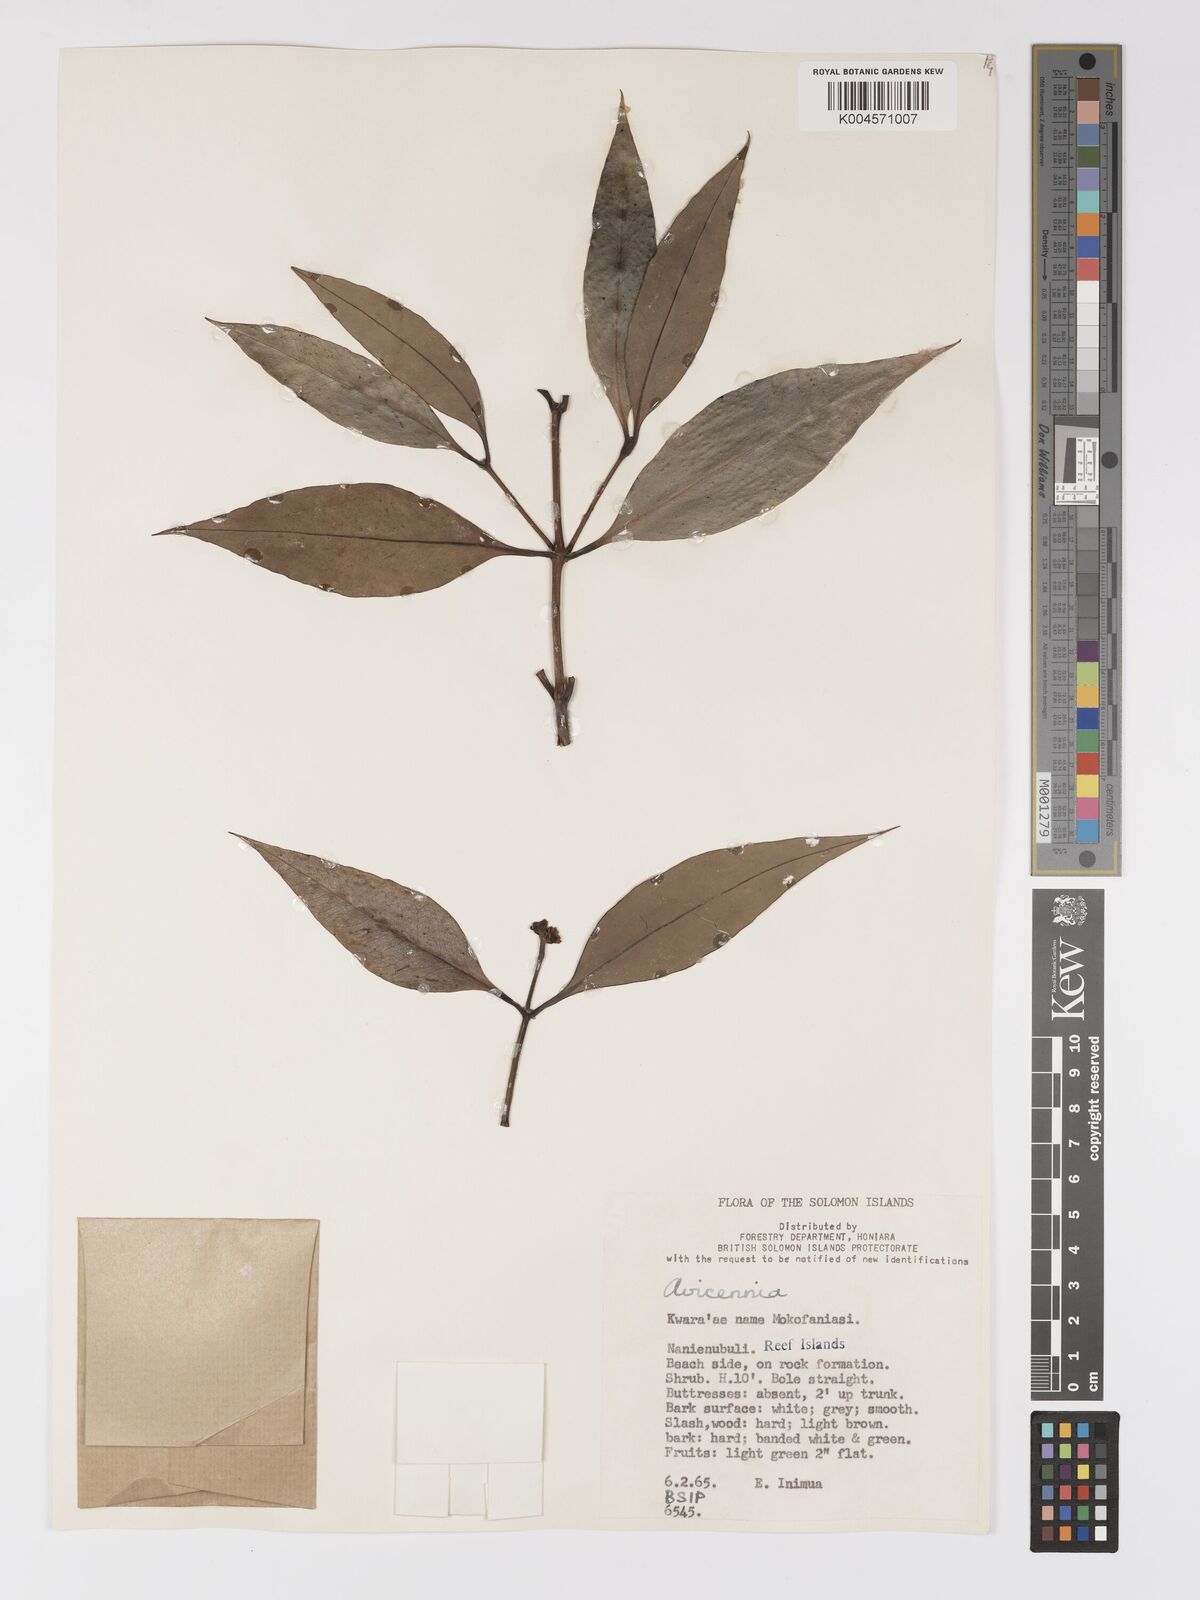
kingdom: Plantae
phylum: Tracheophyta
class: Magnoliopsida
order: Lamiales
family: Acanthaceae
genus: Avicennia
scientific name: Avicennia marina
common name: Gray mangrove
